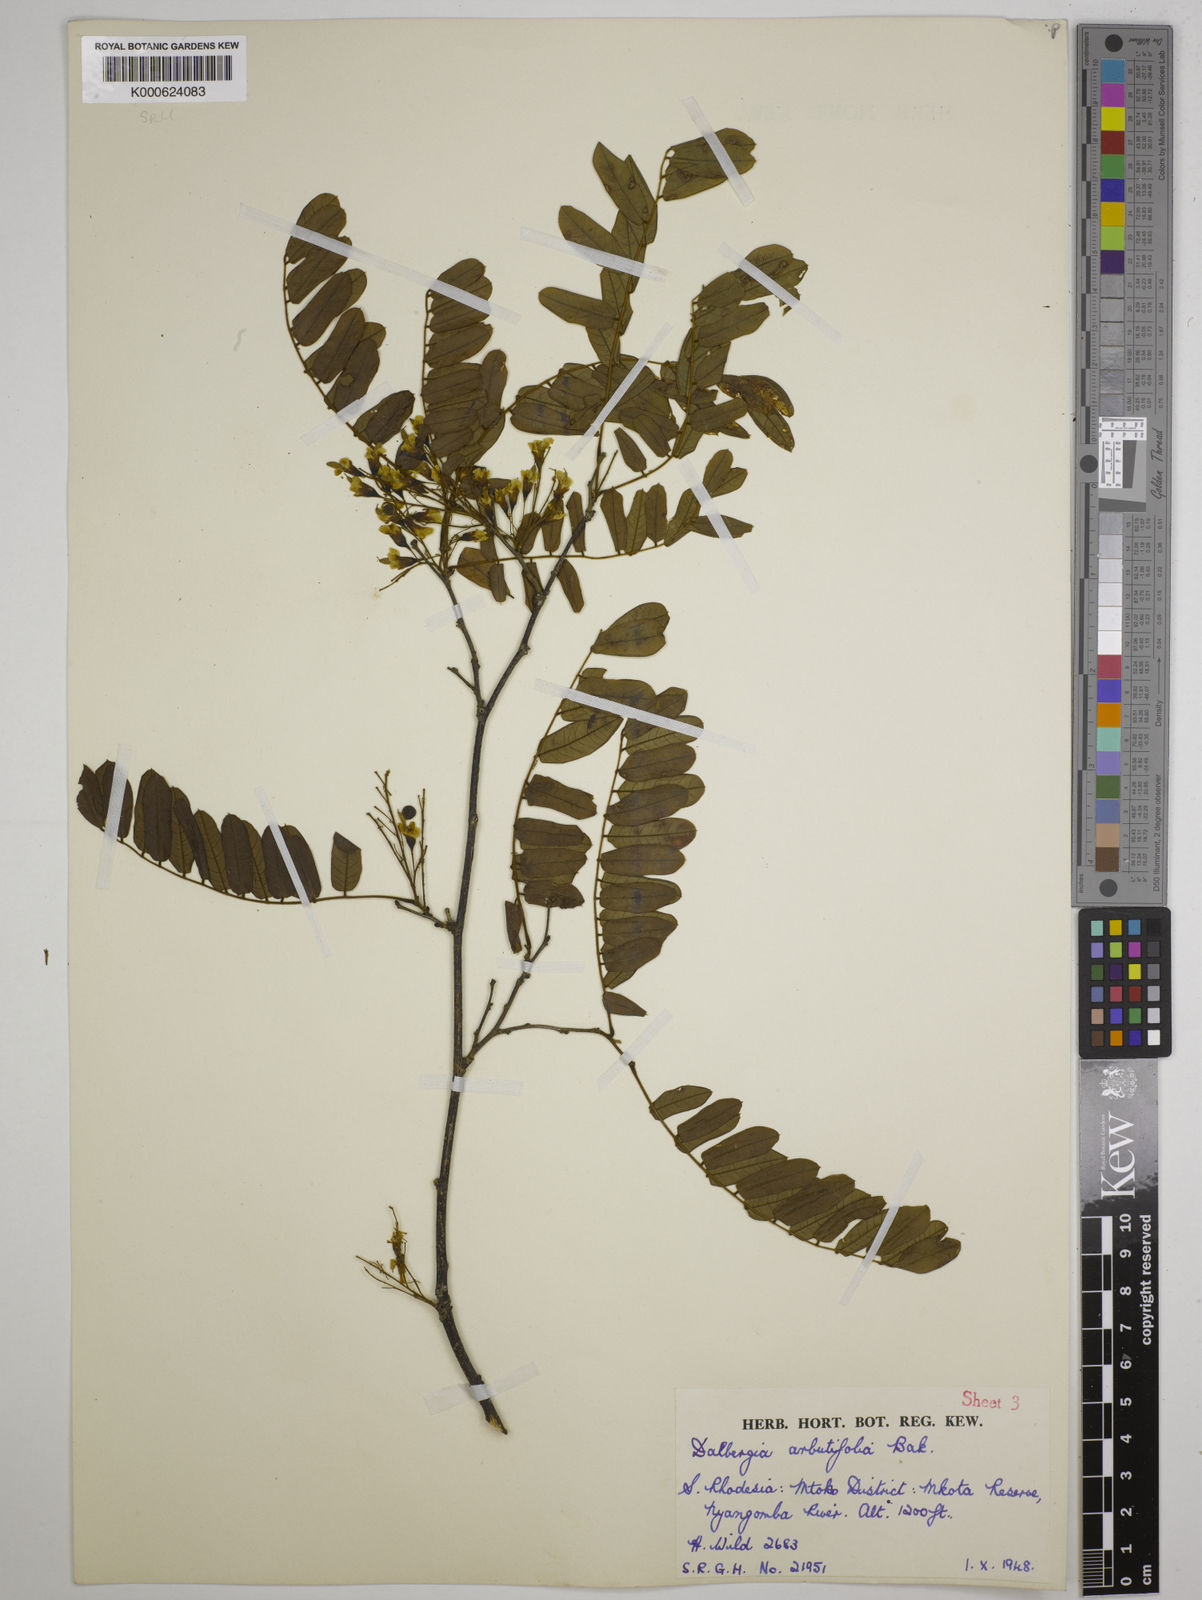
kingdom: Plantae
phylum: Tracheophyta
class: Magnoliopsida
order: Fabales
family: Fabaceae
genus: Dalbergia
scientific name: Dalbergia arbutifolia
